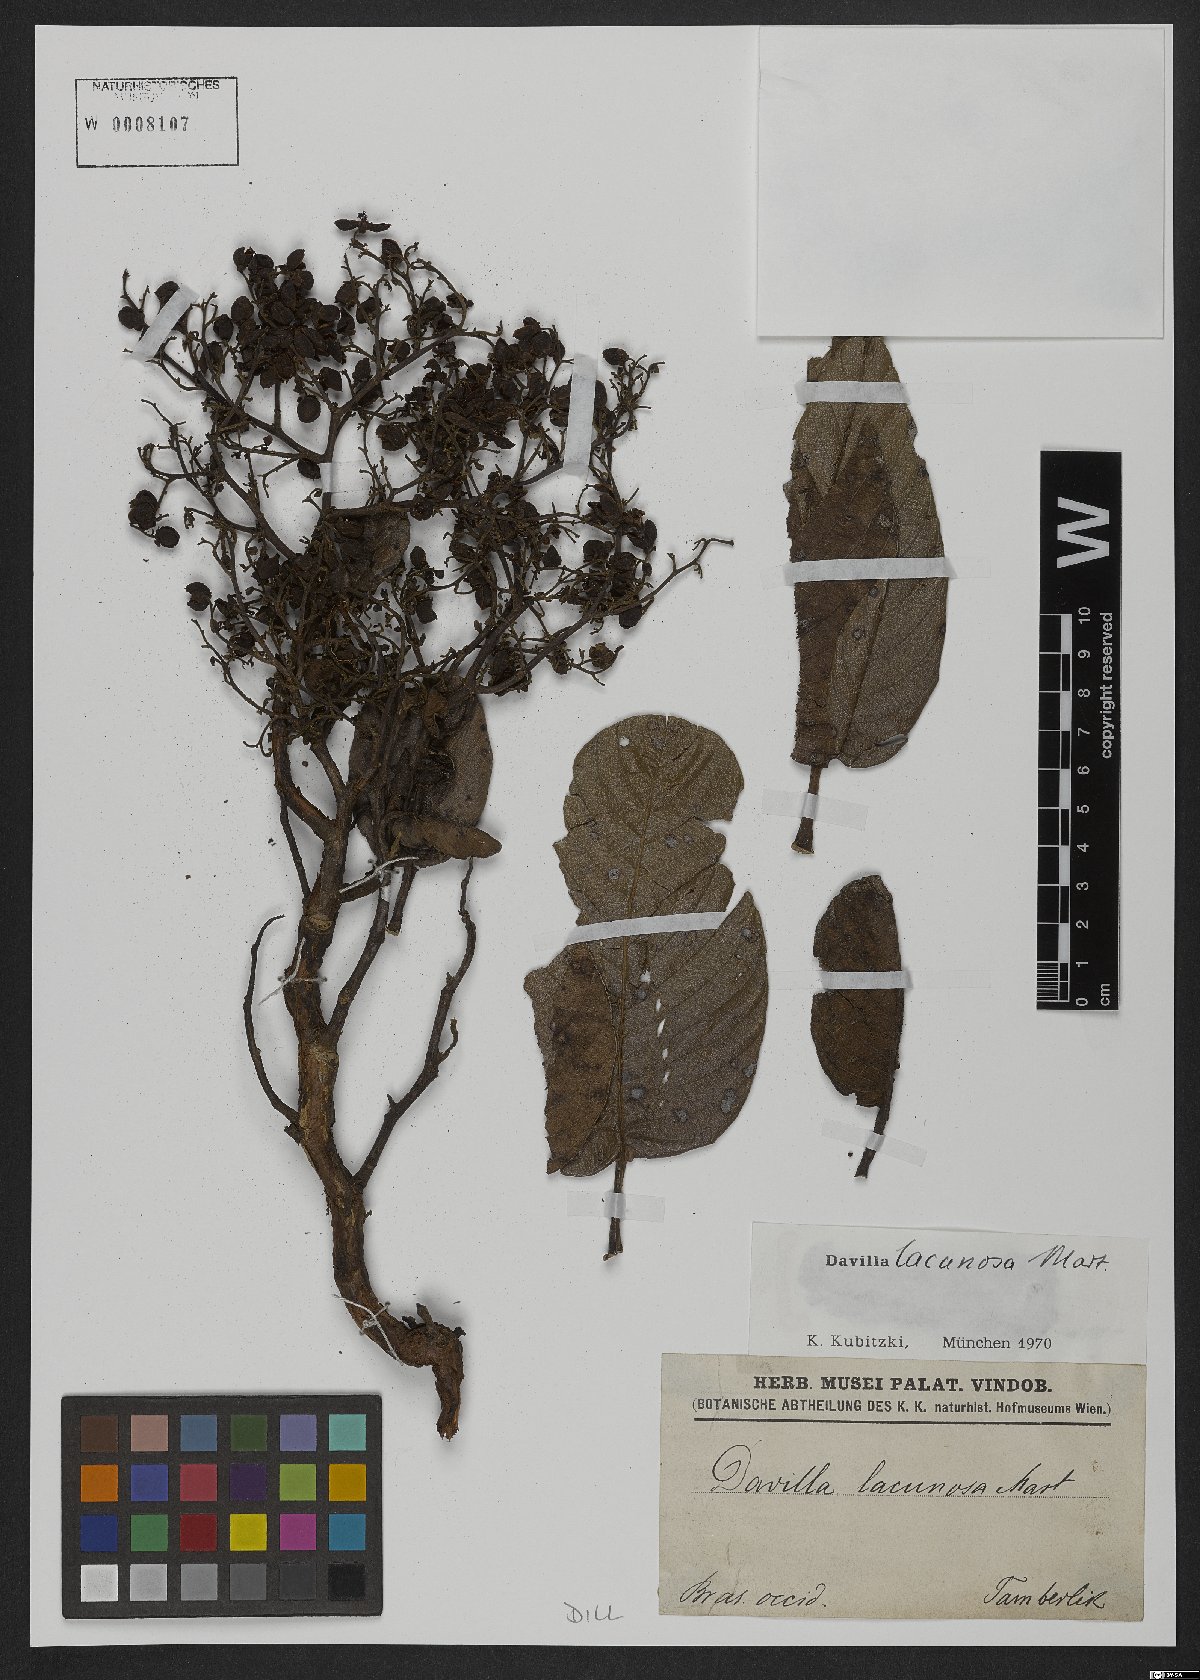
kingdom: Plantae
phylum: Tracheophyta
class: Magnoliopsida
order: Dilleniales
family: Dilleniaceae
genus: Davilla
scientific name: Davilla lacunosa
